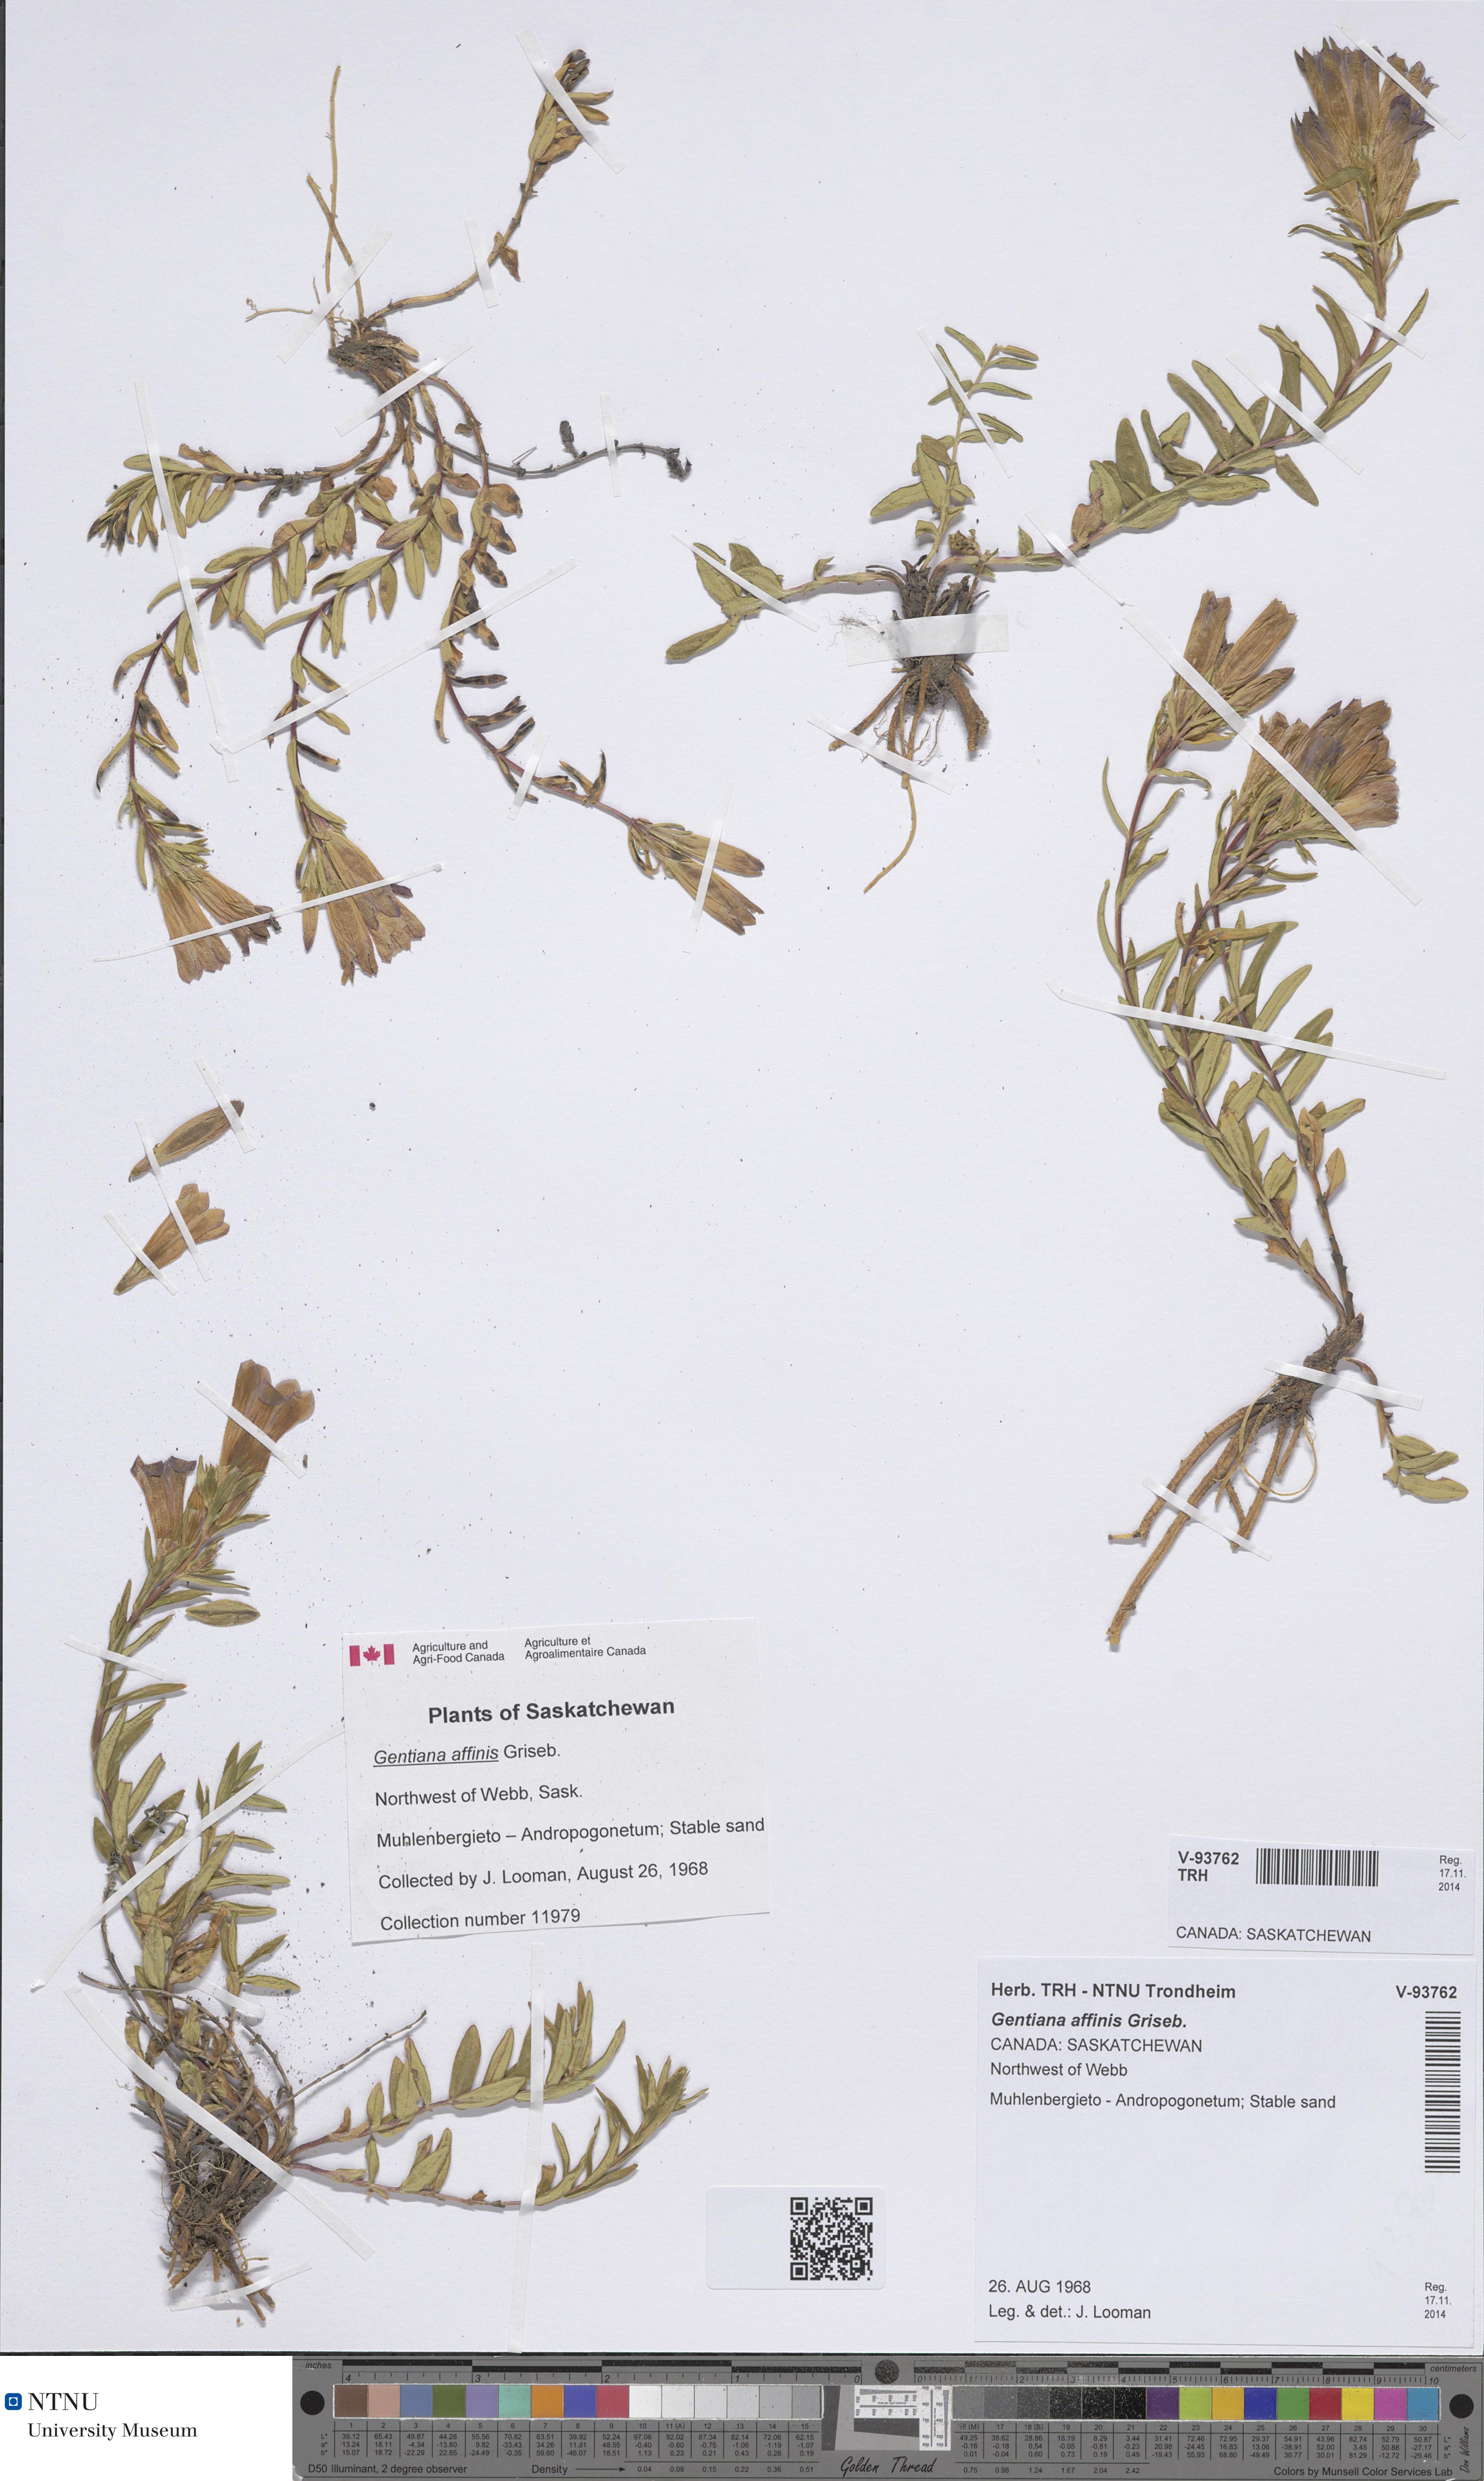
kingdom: Plantae
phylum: Tracheophyta
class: Magnoliopsida
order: Gentianales
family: Gentianaceae
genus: Gentiana
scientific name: Gentiana affinis
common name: Rocky mountain gentian
